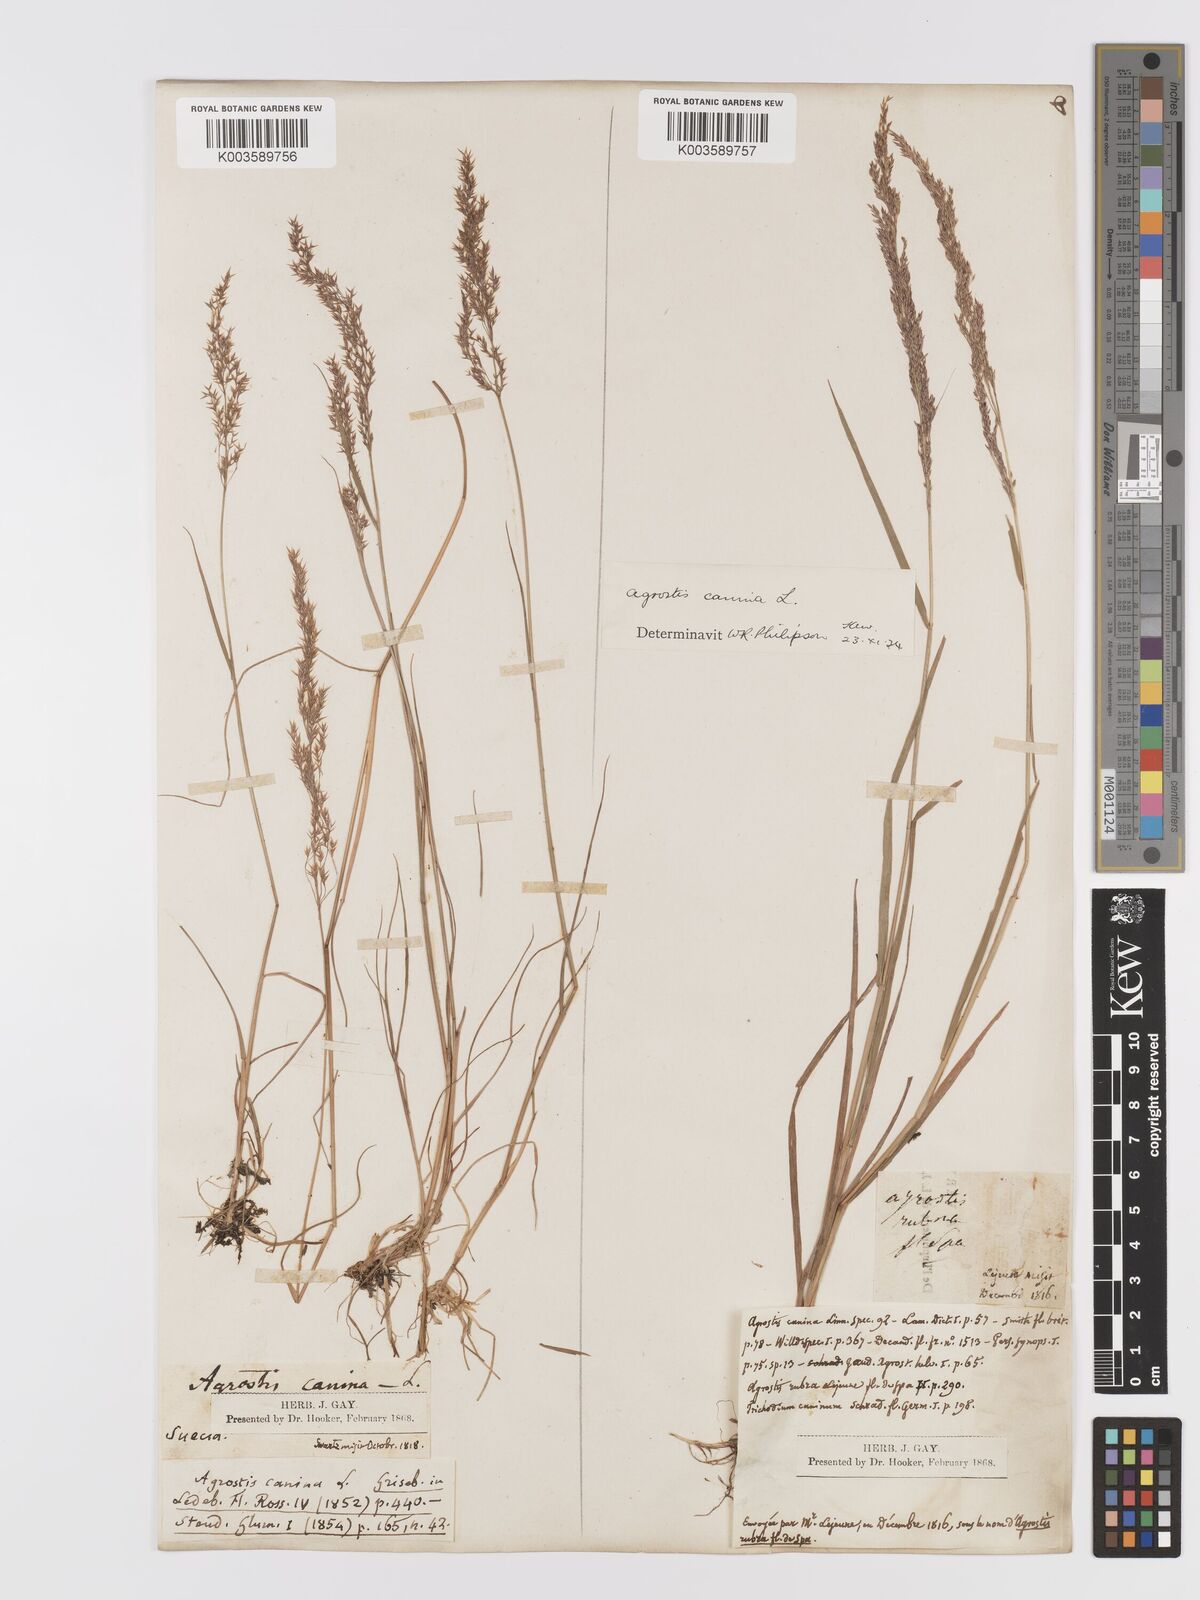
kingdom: Plantae
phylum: Tracheophyta
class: Liliopsida
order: Poales
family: Poaceae
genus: Agrostis
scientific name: Agrostis
